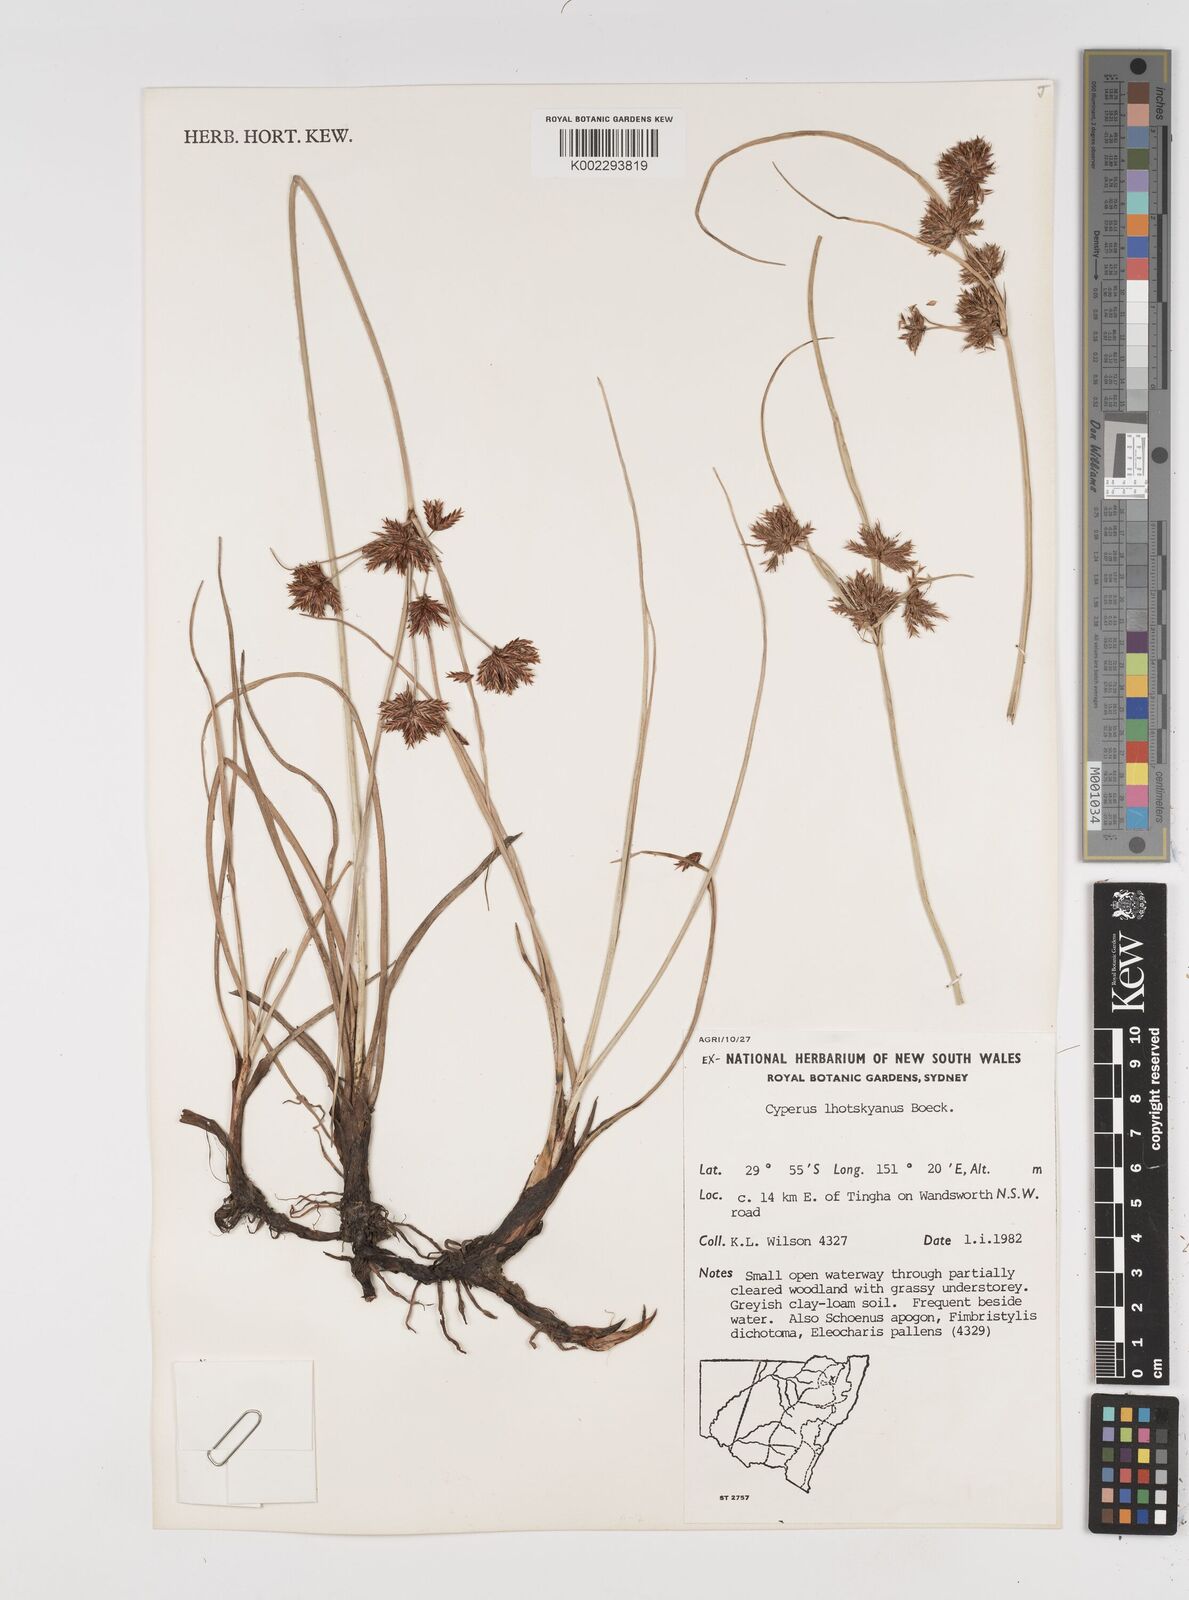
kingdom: Plantae
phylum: Tracheophyta
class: Liliopsida
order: Poales
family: Cyperaceae
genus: Cyperus
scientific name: Cyperus lhotskyanus
